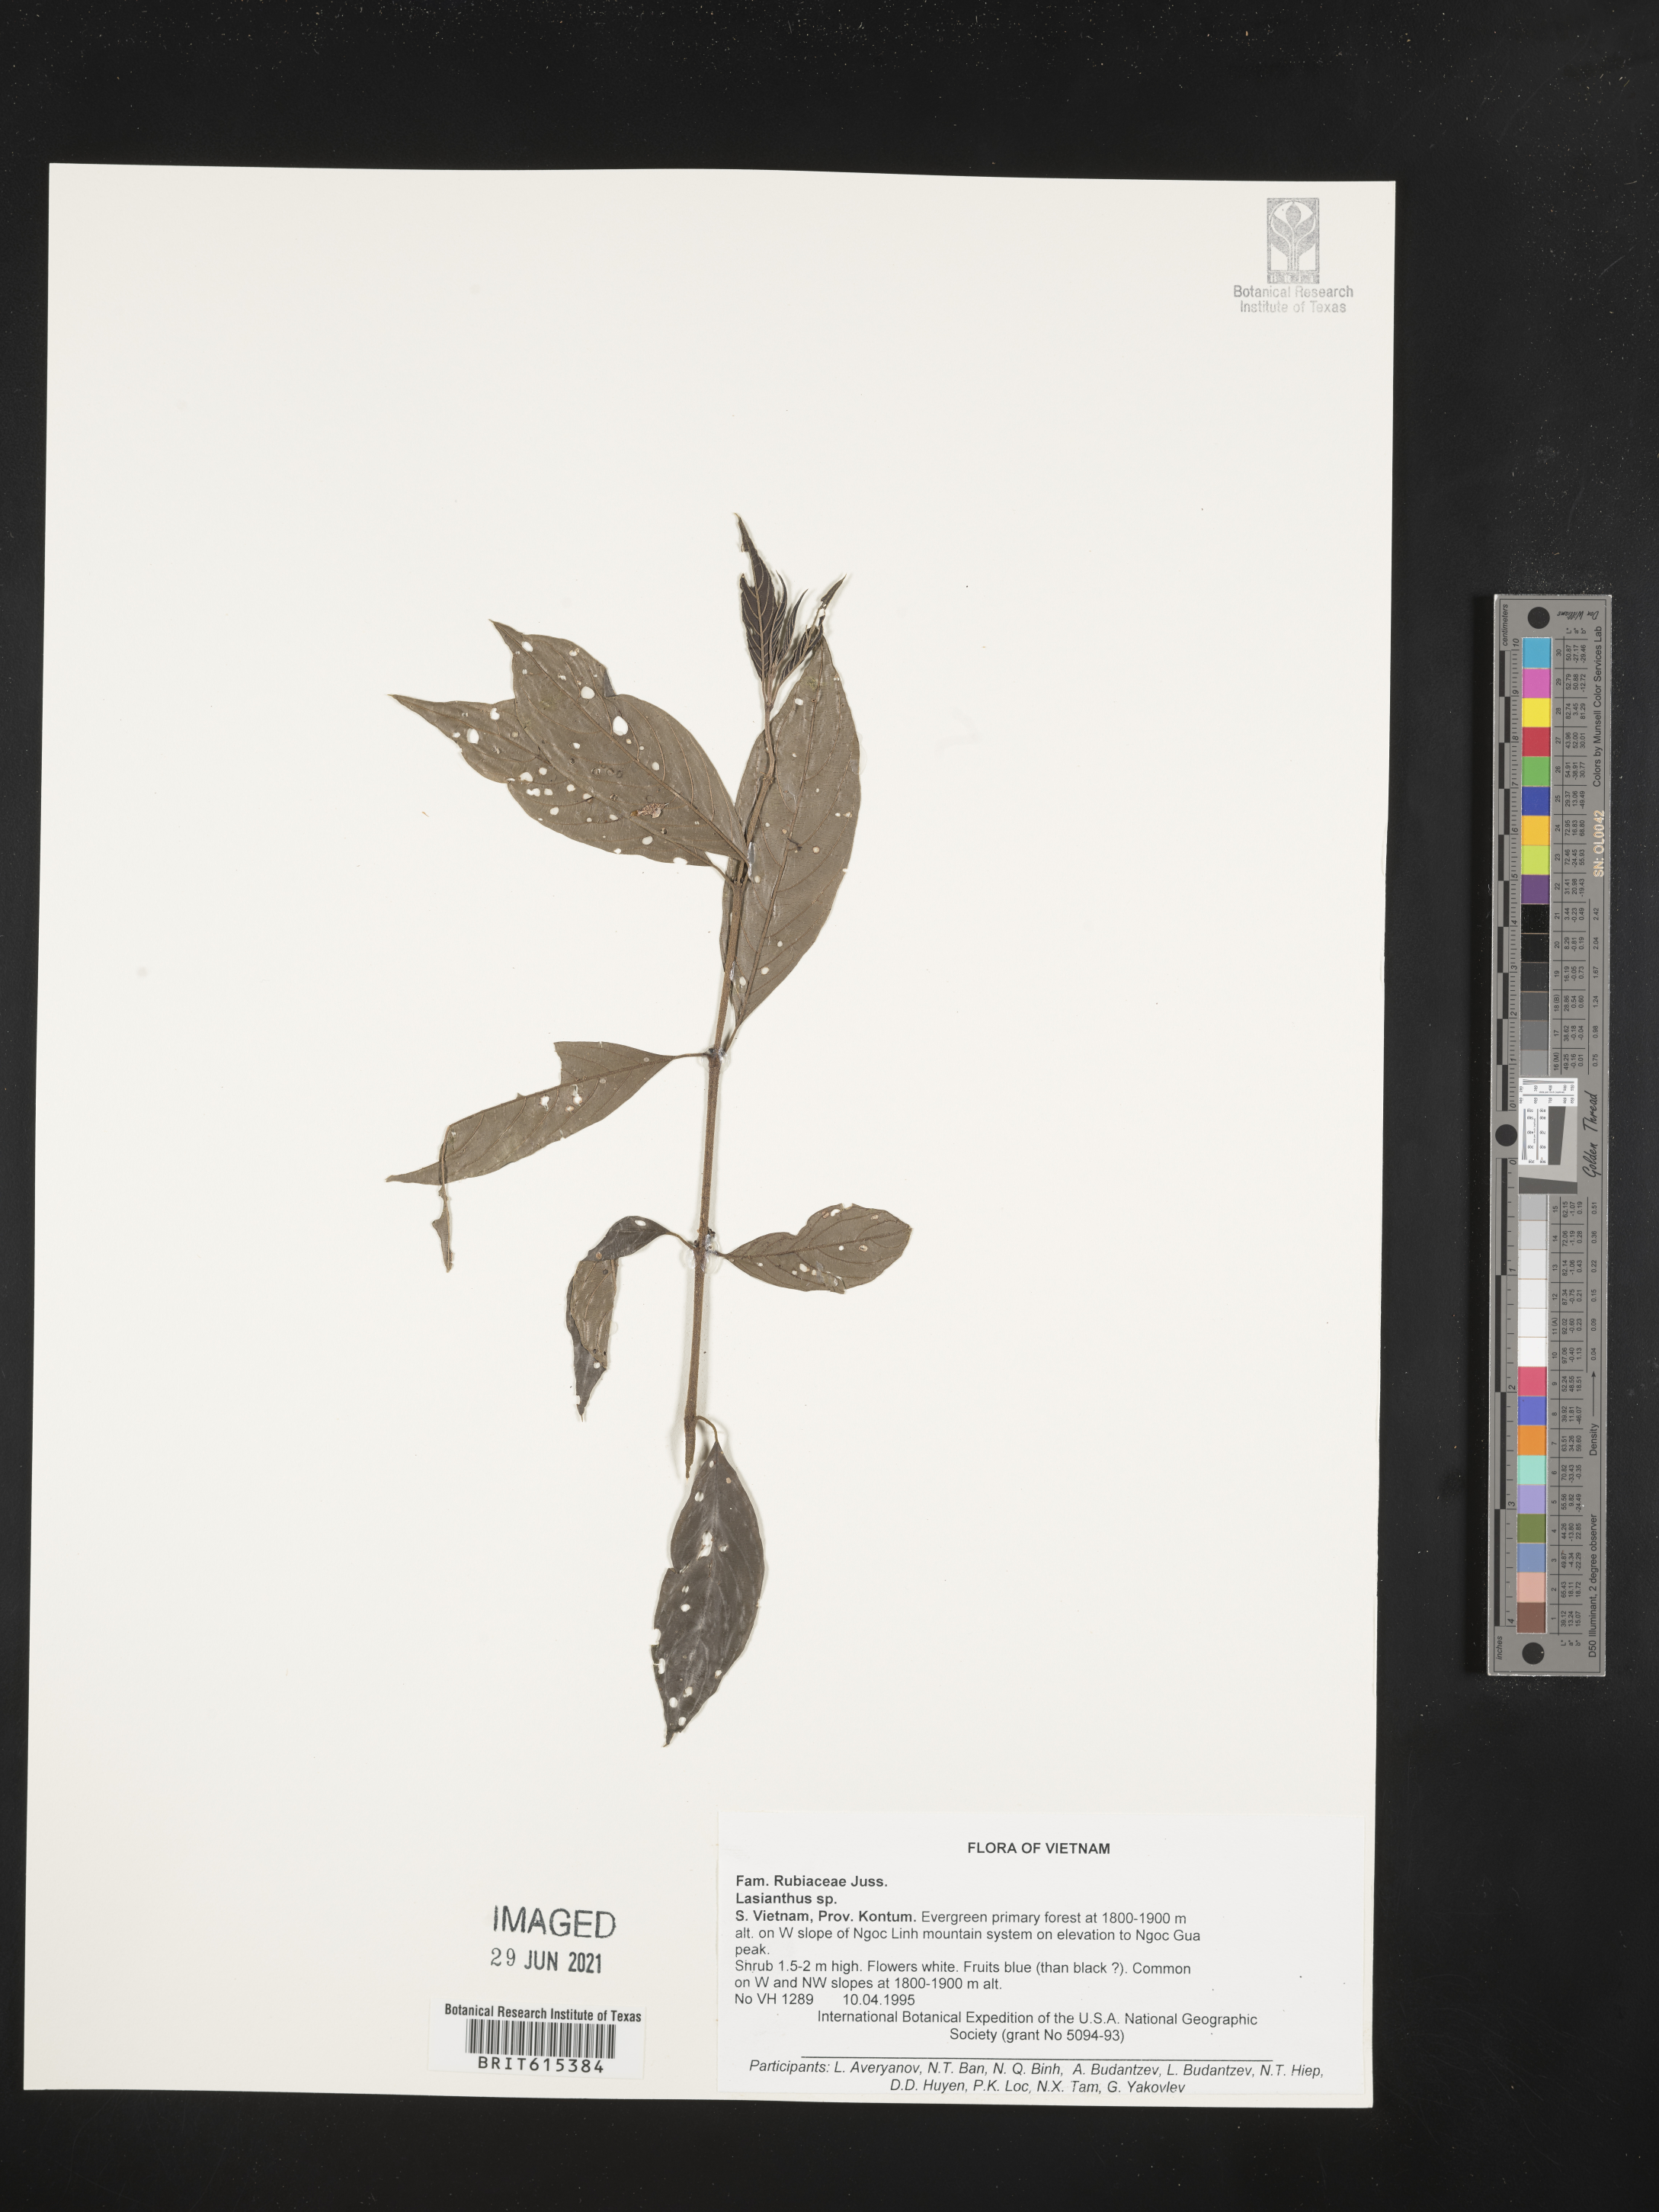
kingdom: Plantae
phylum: Tracheophyta
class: Magnoliopsida
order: Gentianales
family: Rubiaceae
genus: Lasianthus
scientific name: Lasianthus
